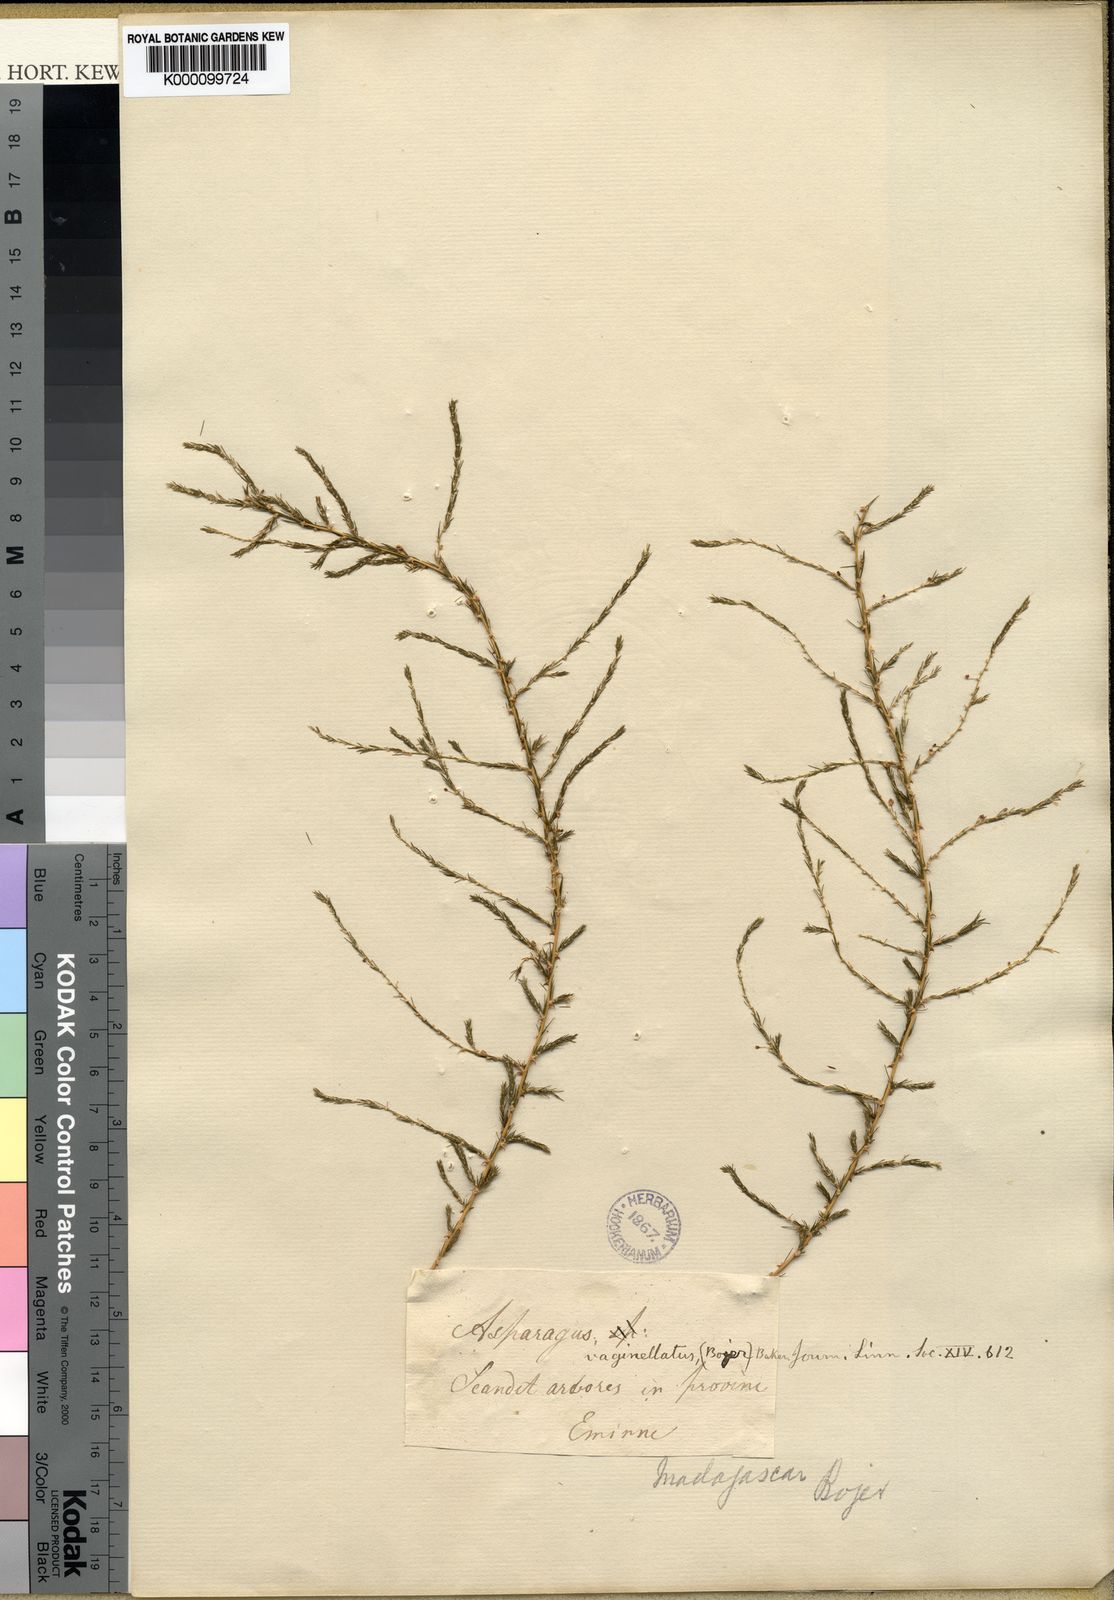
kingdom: Plantae
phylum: Tracheophyta
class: Liliopsida
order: Asparagales
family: Asparagaceae
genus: Asparagus
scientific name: Asparagus vaginellatus
